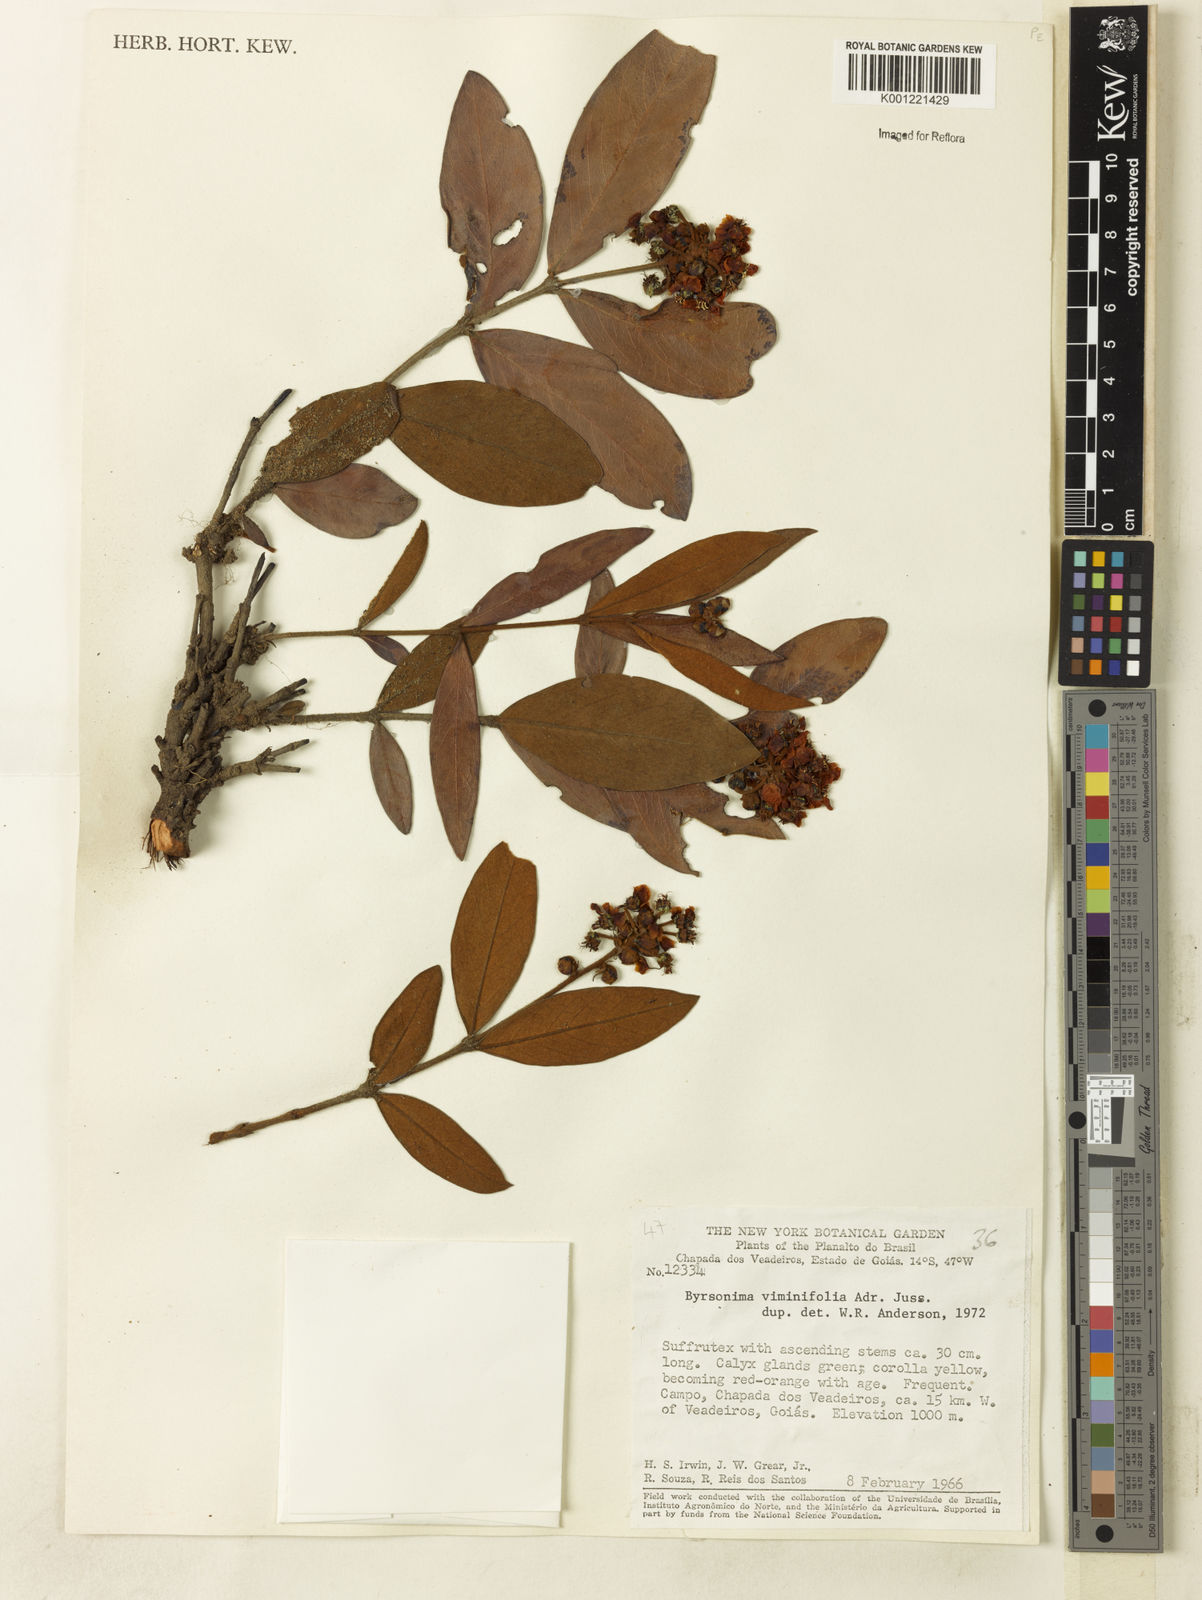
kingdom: Plantae
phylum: Tracheophyta
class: Magnoliopsida
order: Malpighiales
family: Malpighiaceae
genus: Byrsonima
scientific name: Byrsonima viminifolia
